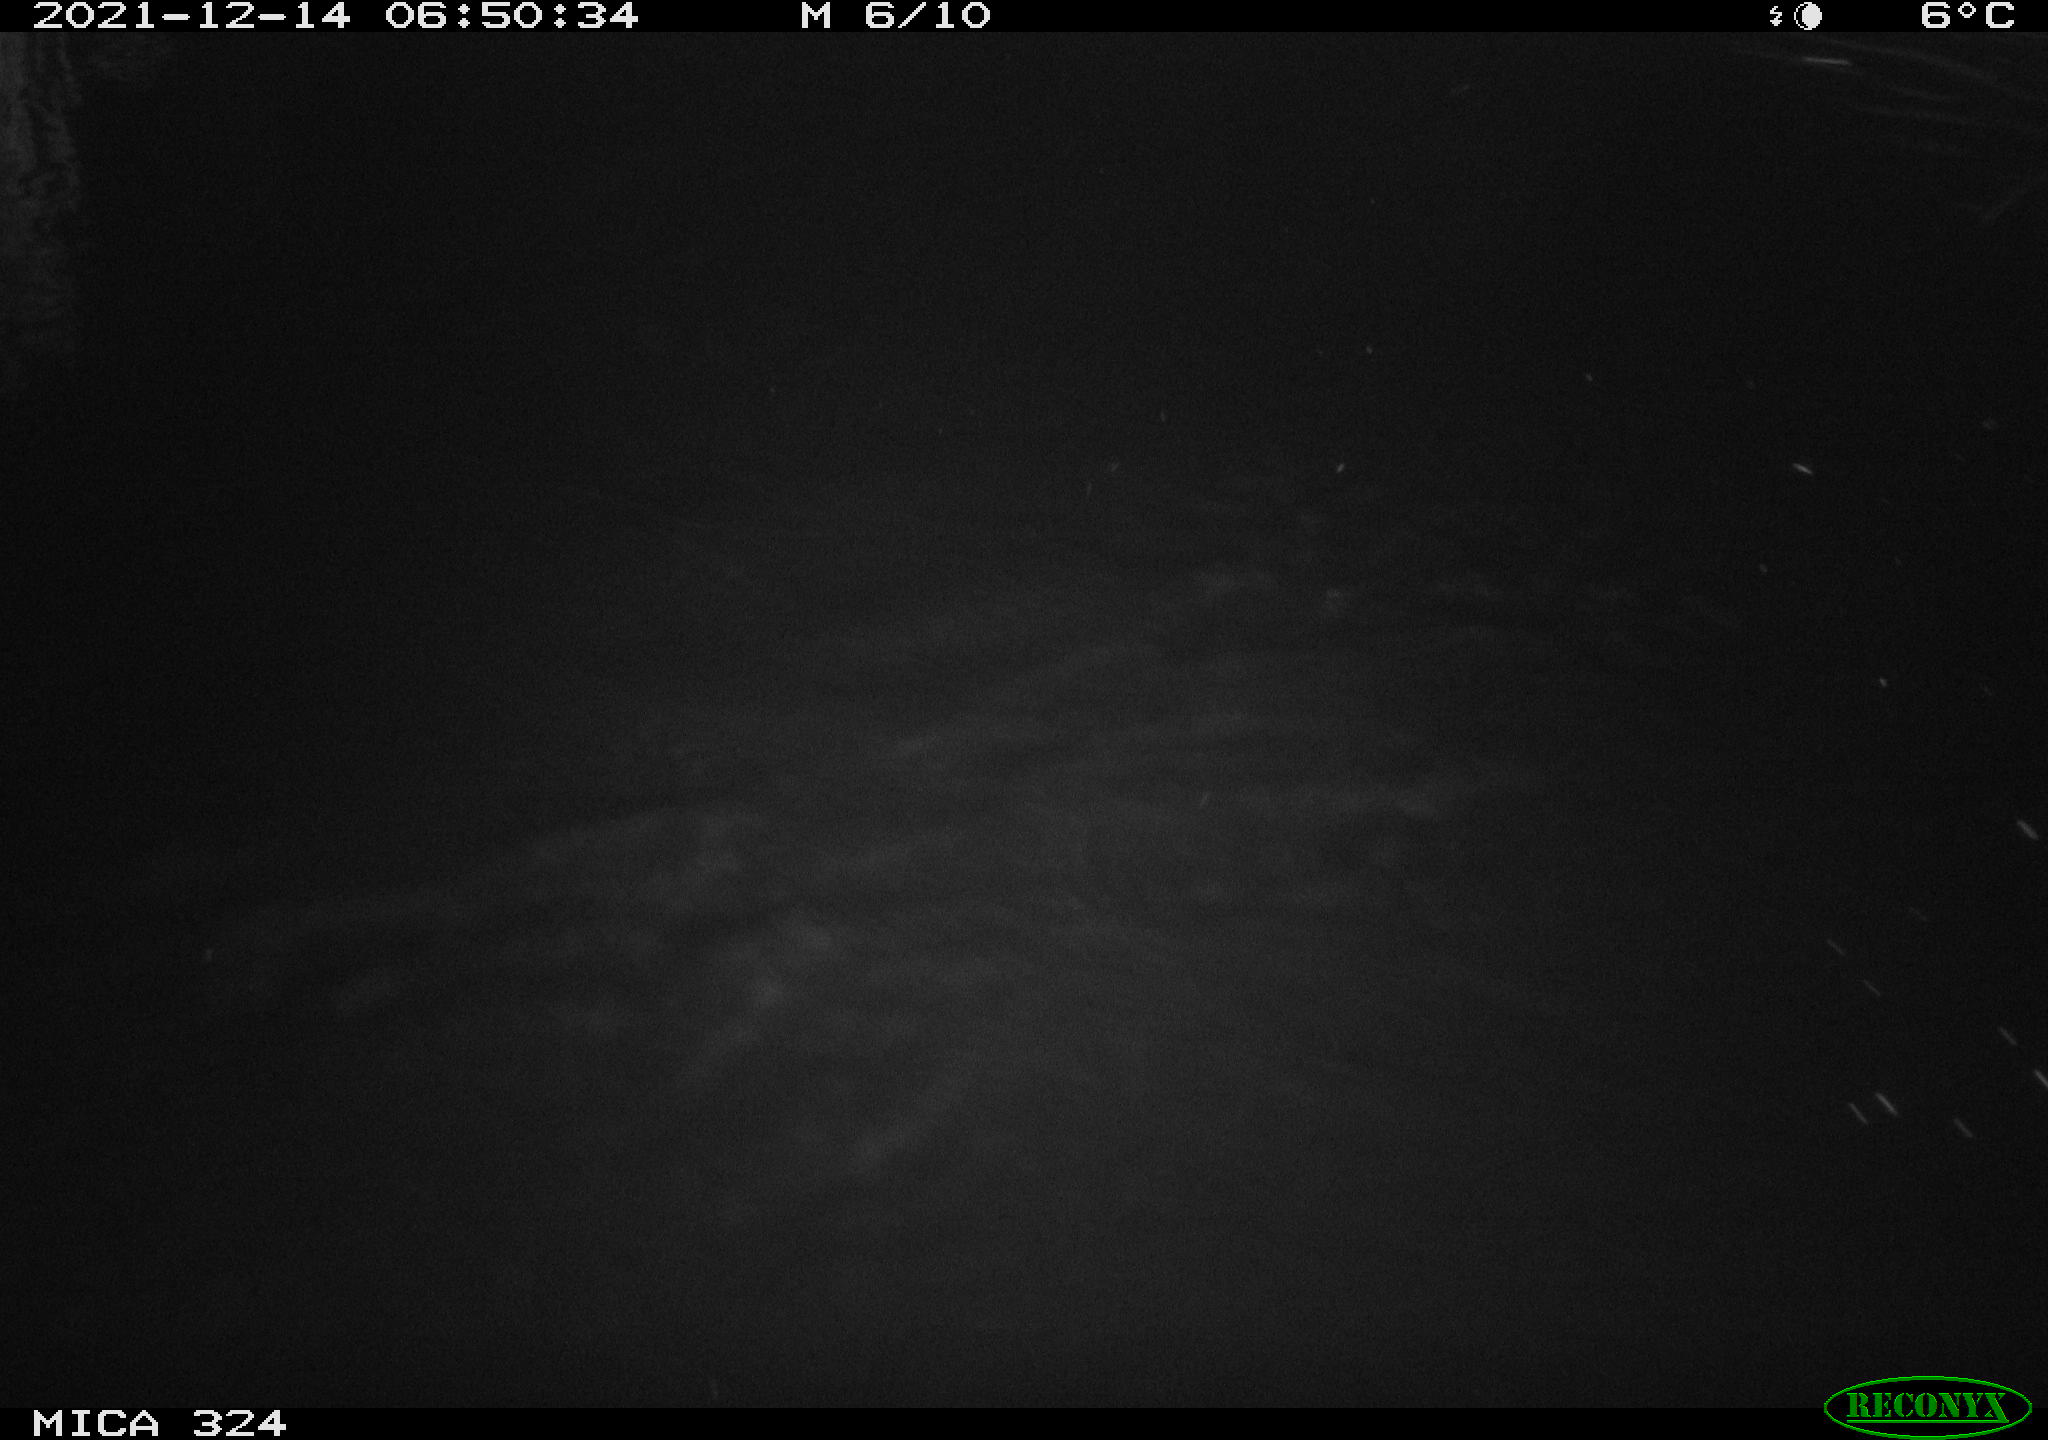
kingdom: Animalia
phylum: Chordata
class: Mammalia
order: Rodentia
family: Myocastoridae
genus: Myocastor
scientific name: Myocastor coypus
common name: Coypu
